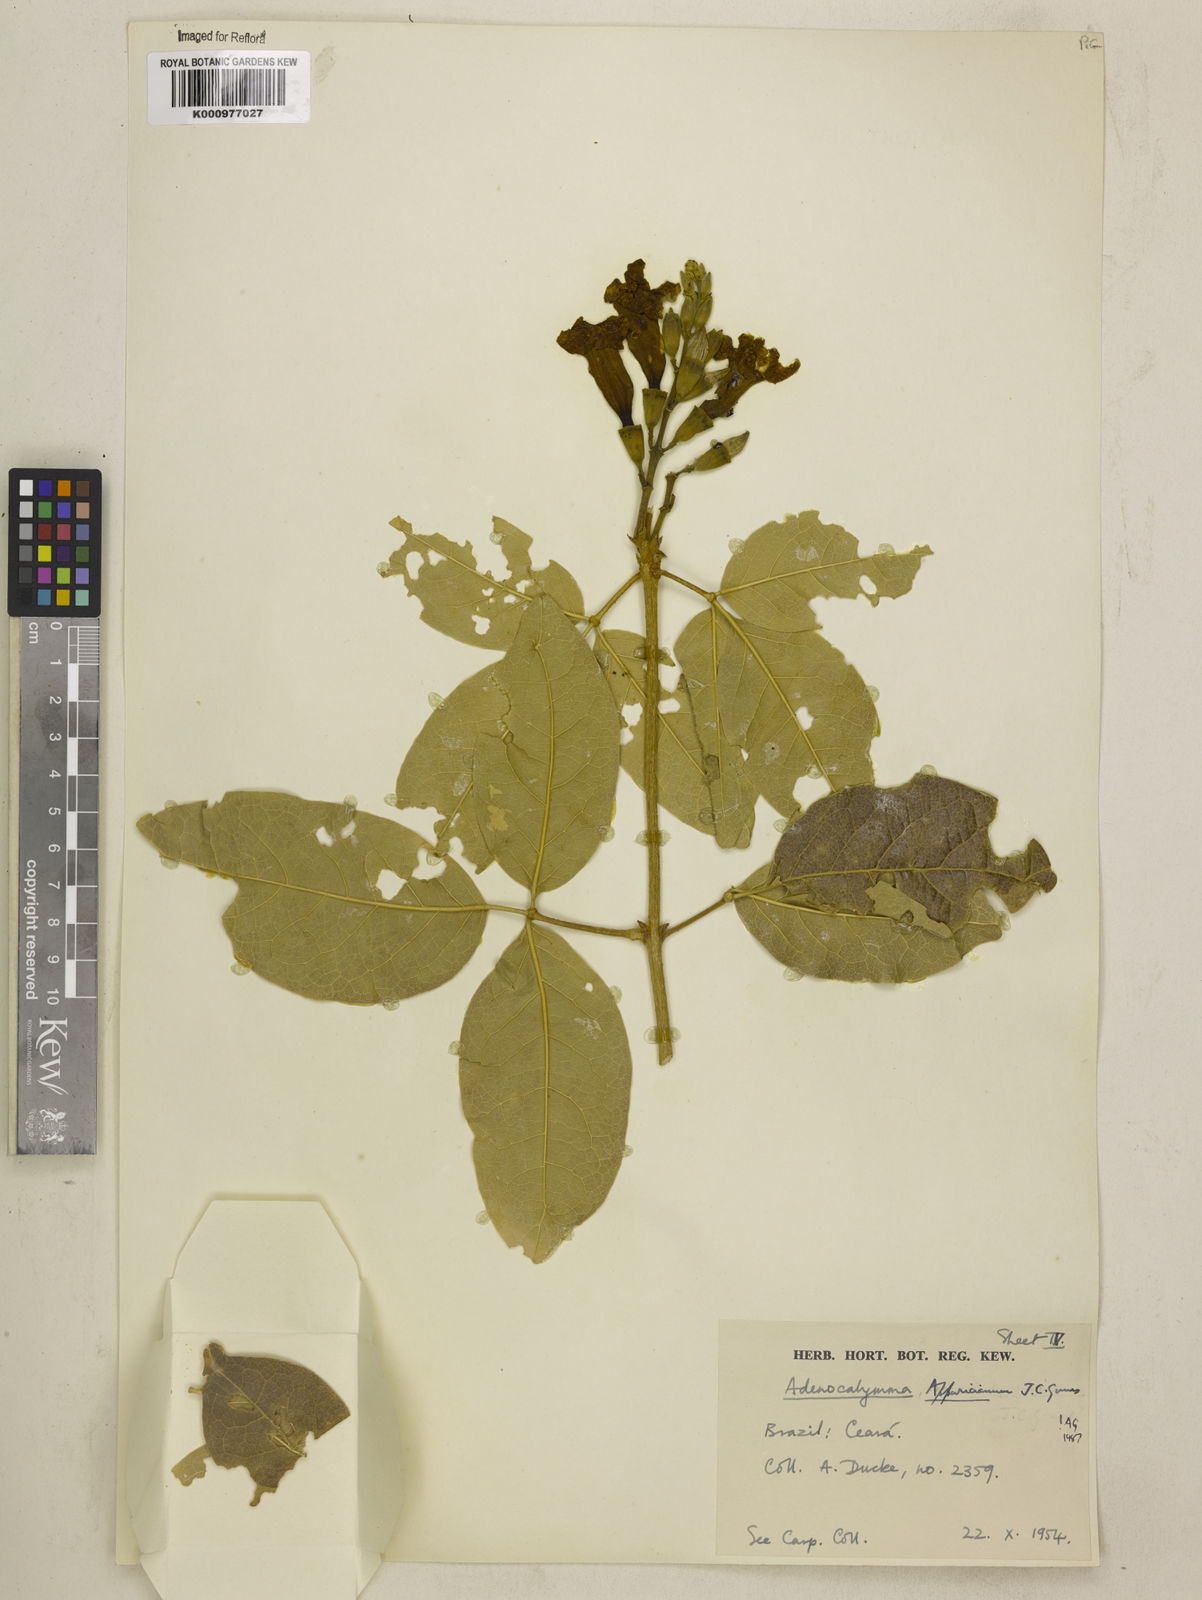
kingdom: Plantae
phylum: Tracheophyta
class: Magnoliopsida
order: Lamiales
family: Bignoniaceae
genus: Adenocalymma
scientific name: Adenocalymma apparicianum
